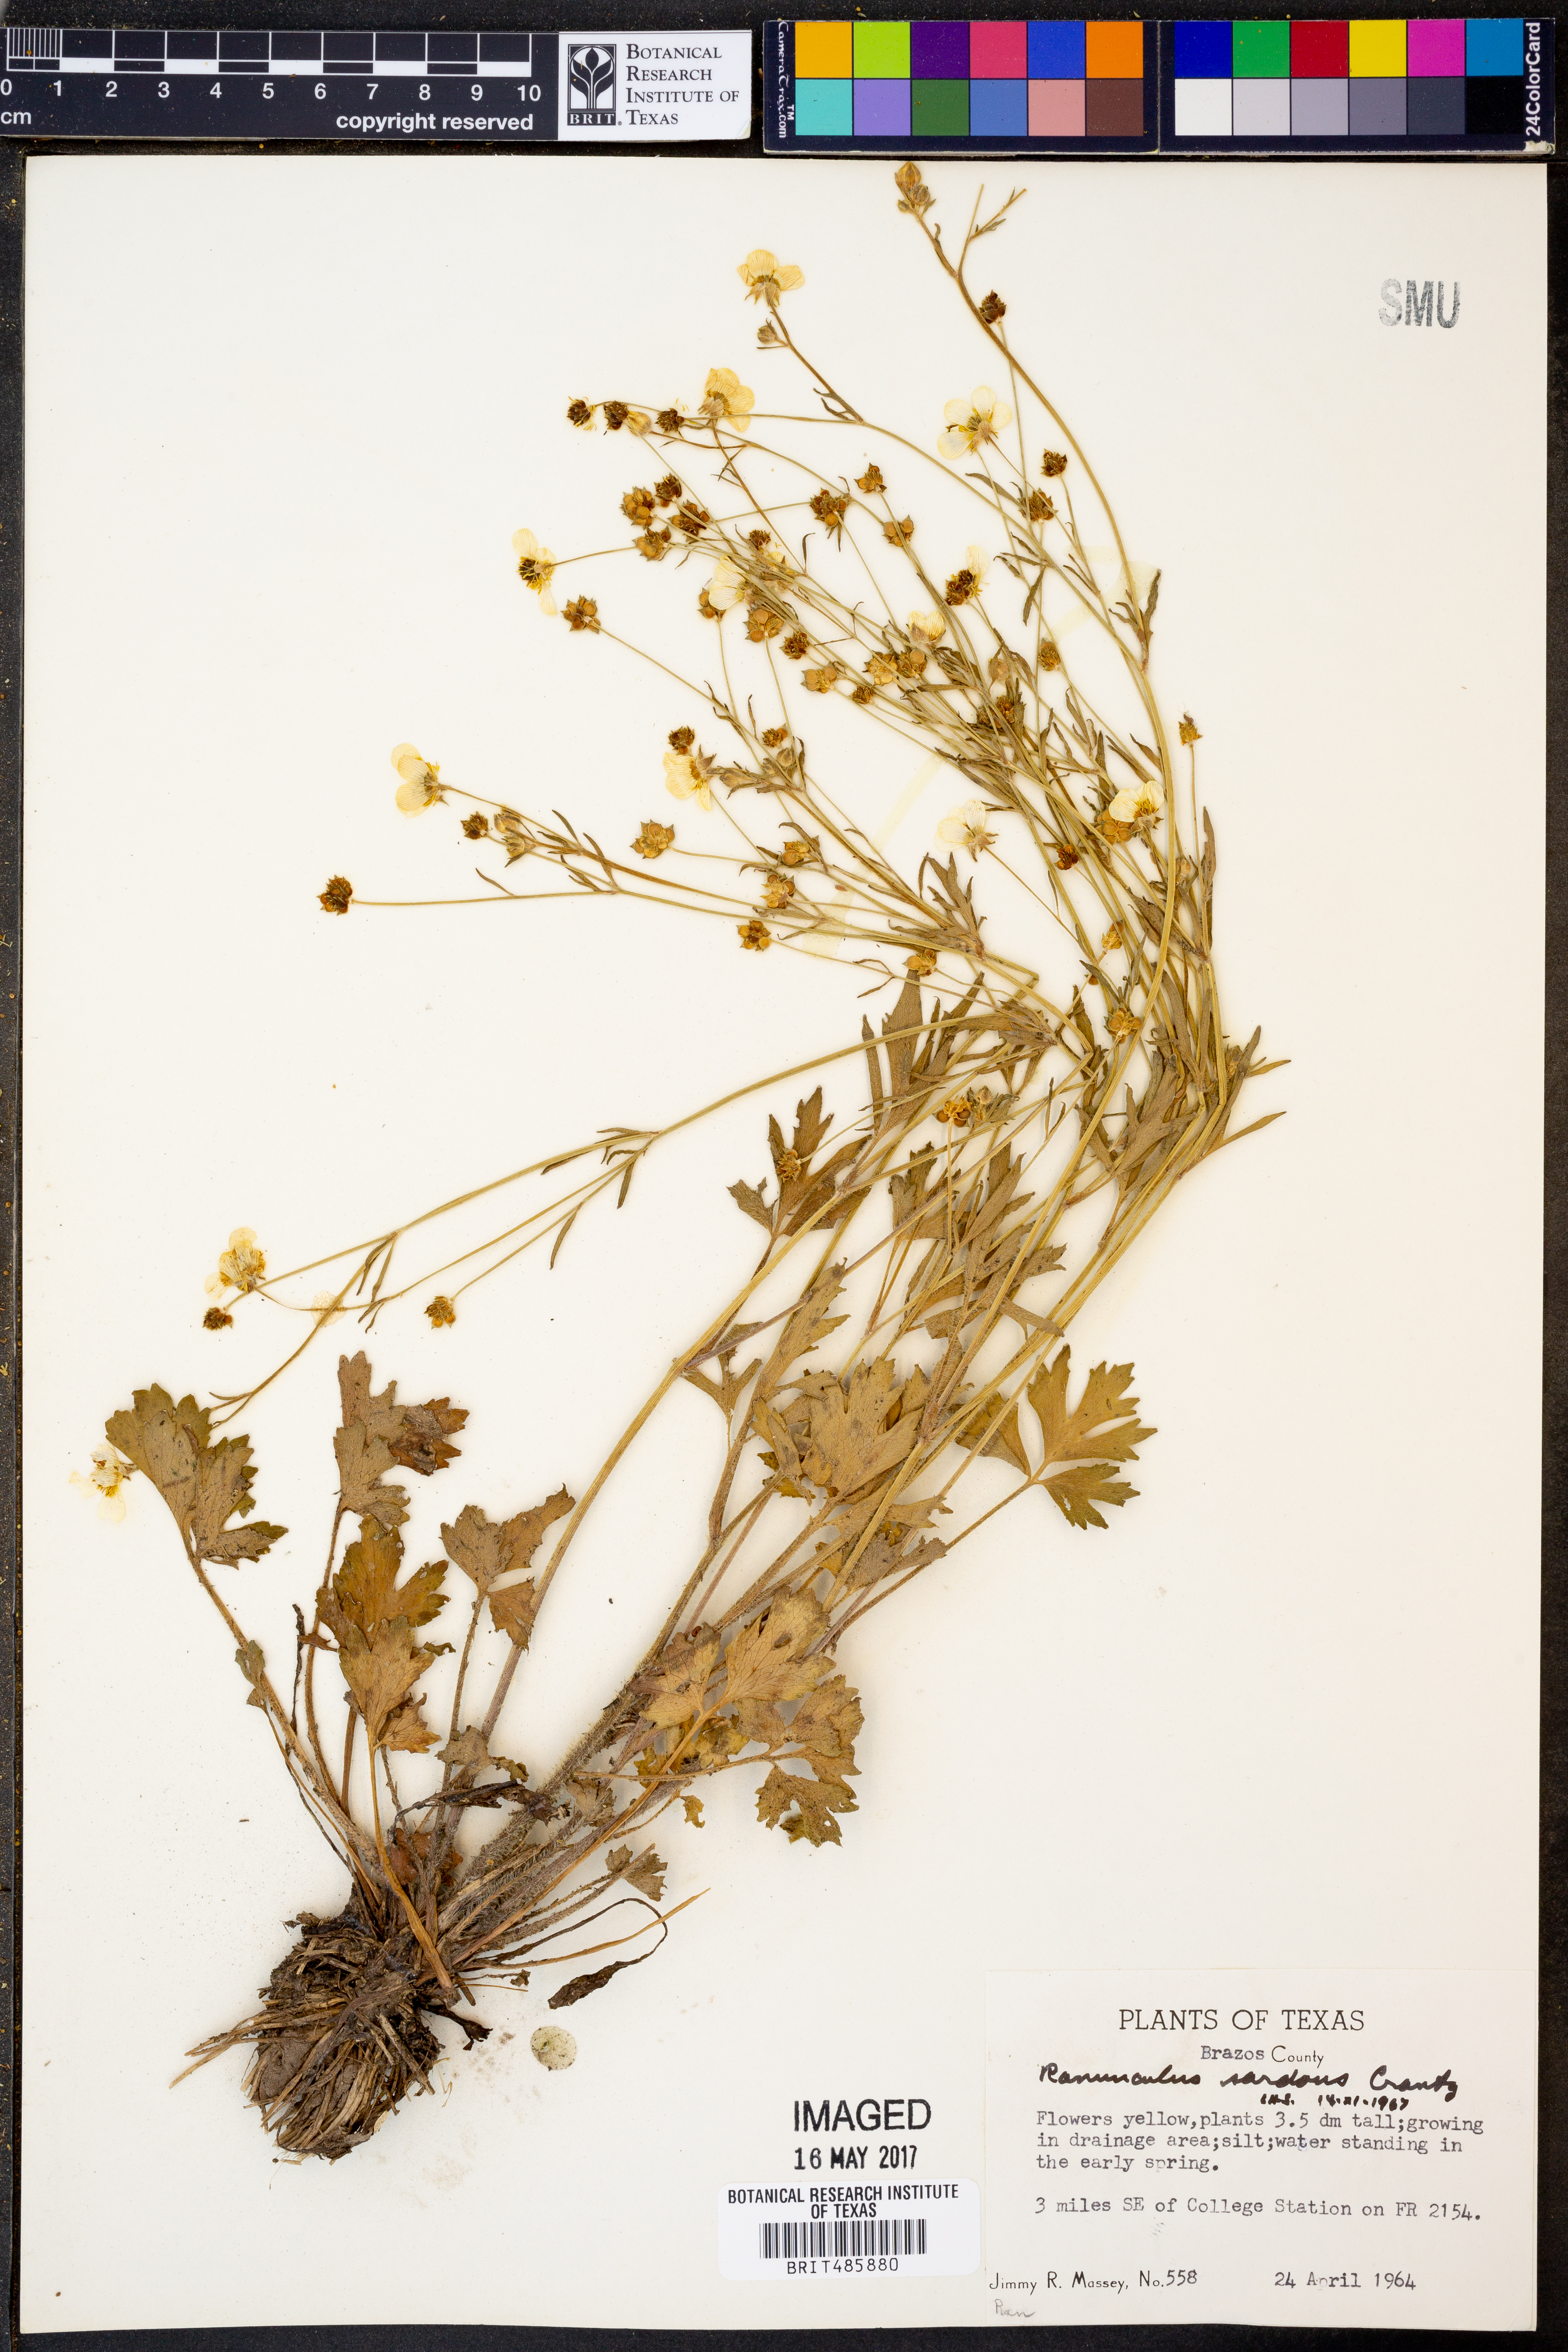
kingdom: Plantae
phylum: Tracheophyta
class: Magnoliopsida
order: Ranunculales
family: Ranunculaceae
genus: Ranunculus
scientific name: Ranunculus sardous
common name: Hairy buttercup
